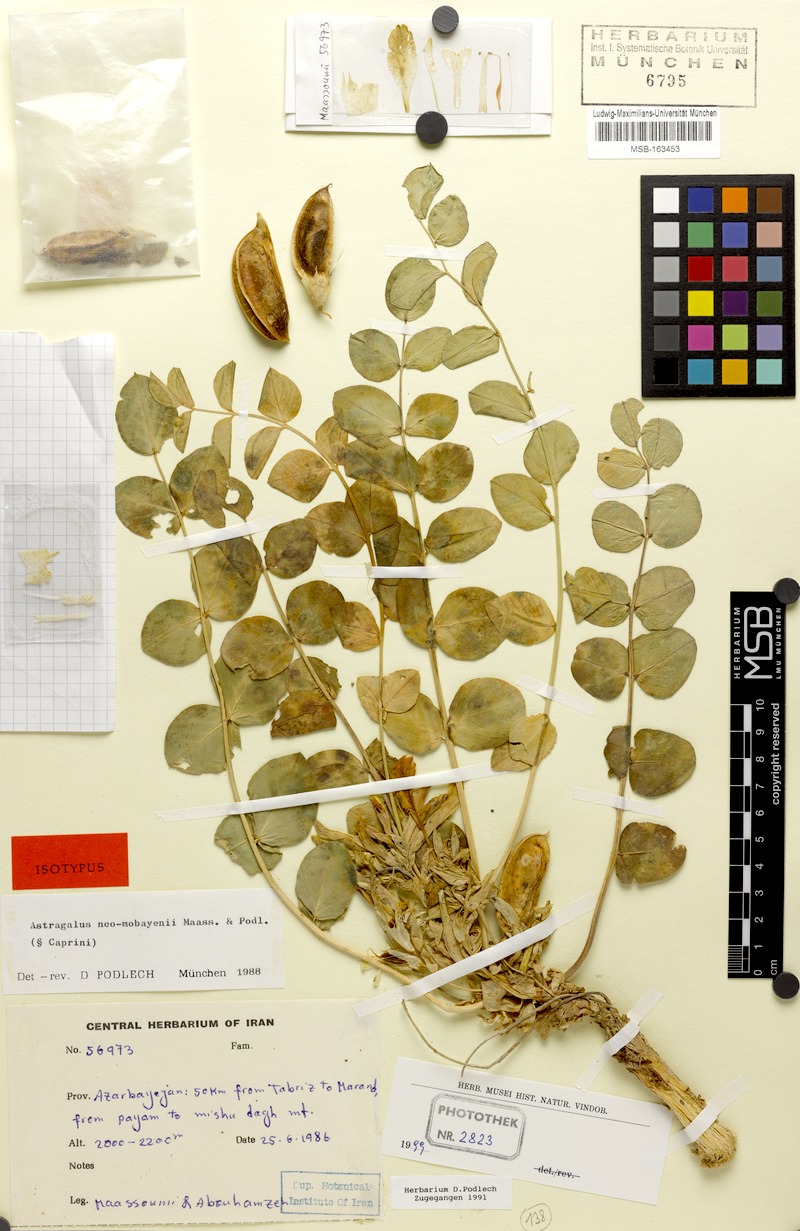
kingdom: Plantae
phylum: Tracheophyta
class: Magnoliopsida
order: Fabales
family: Fabaceae
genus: Astragalus
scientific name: Astragalus neomobayenii
